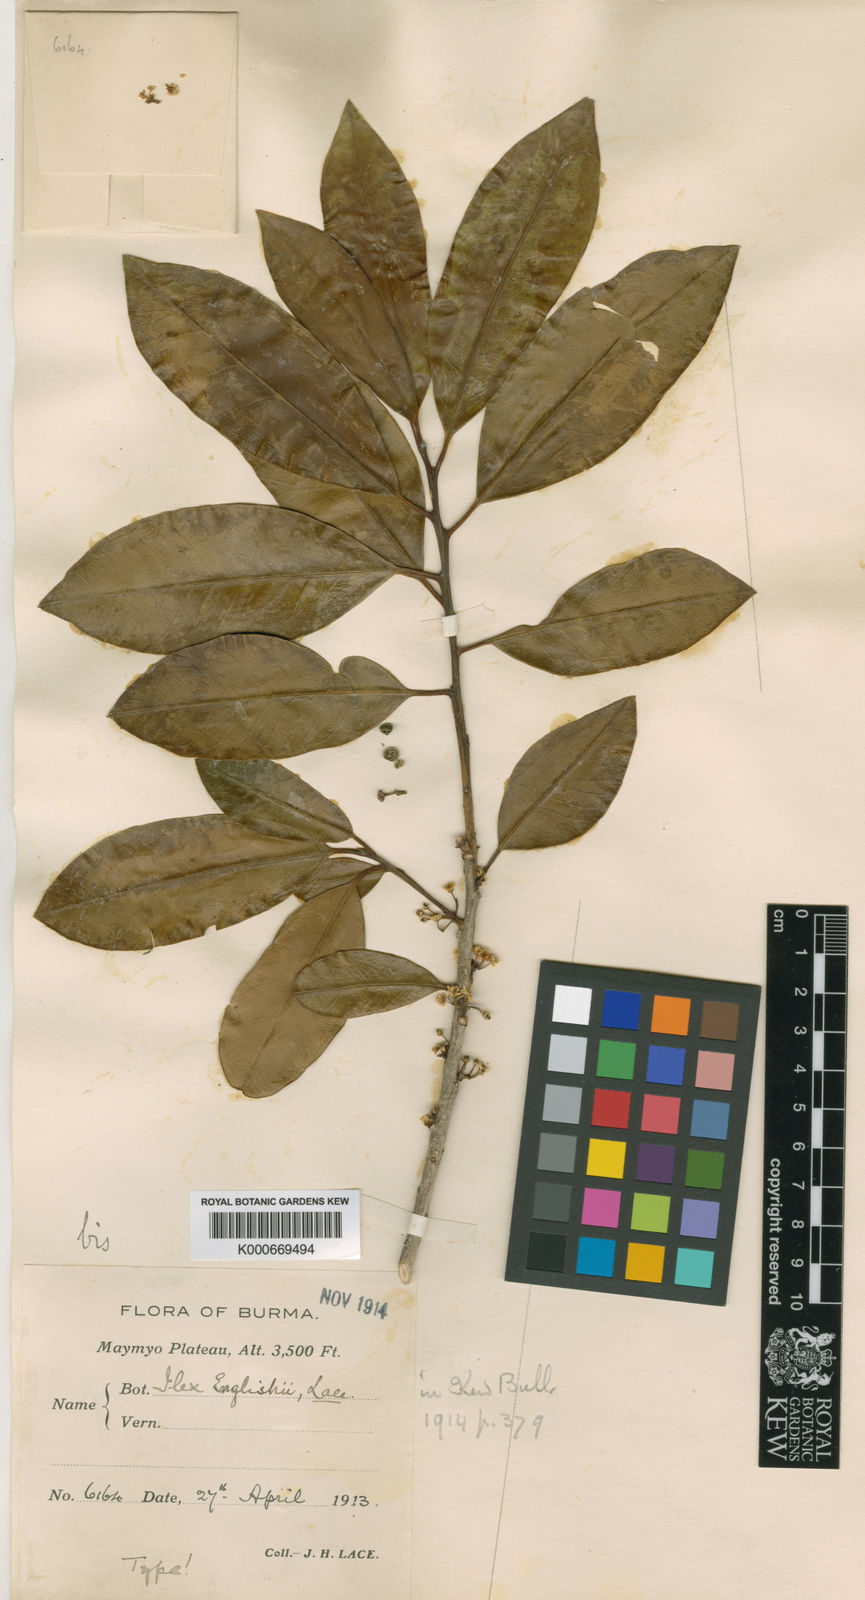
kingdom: Plantae
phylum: Tracheophyta
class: Magnoliopsida
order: Aquifoliales
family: Aquifoliaceae
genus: Ilex
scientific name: Ilex englishii
